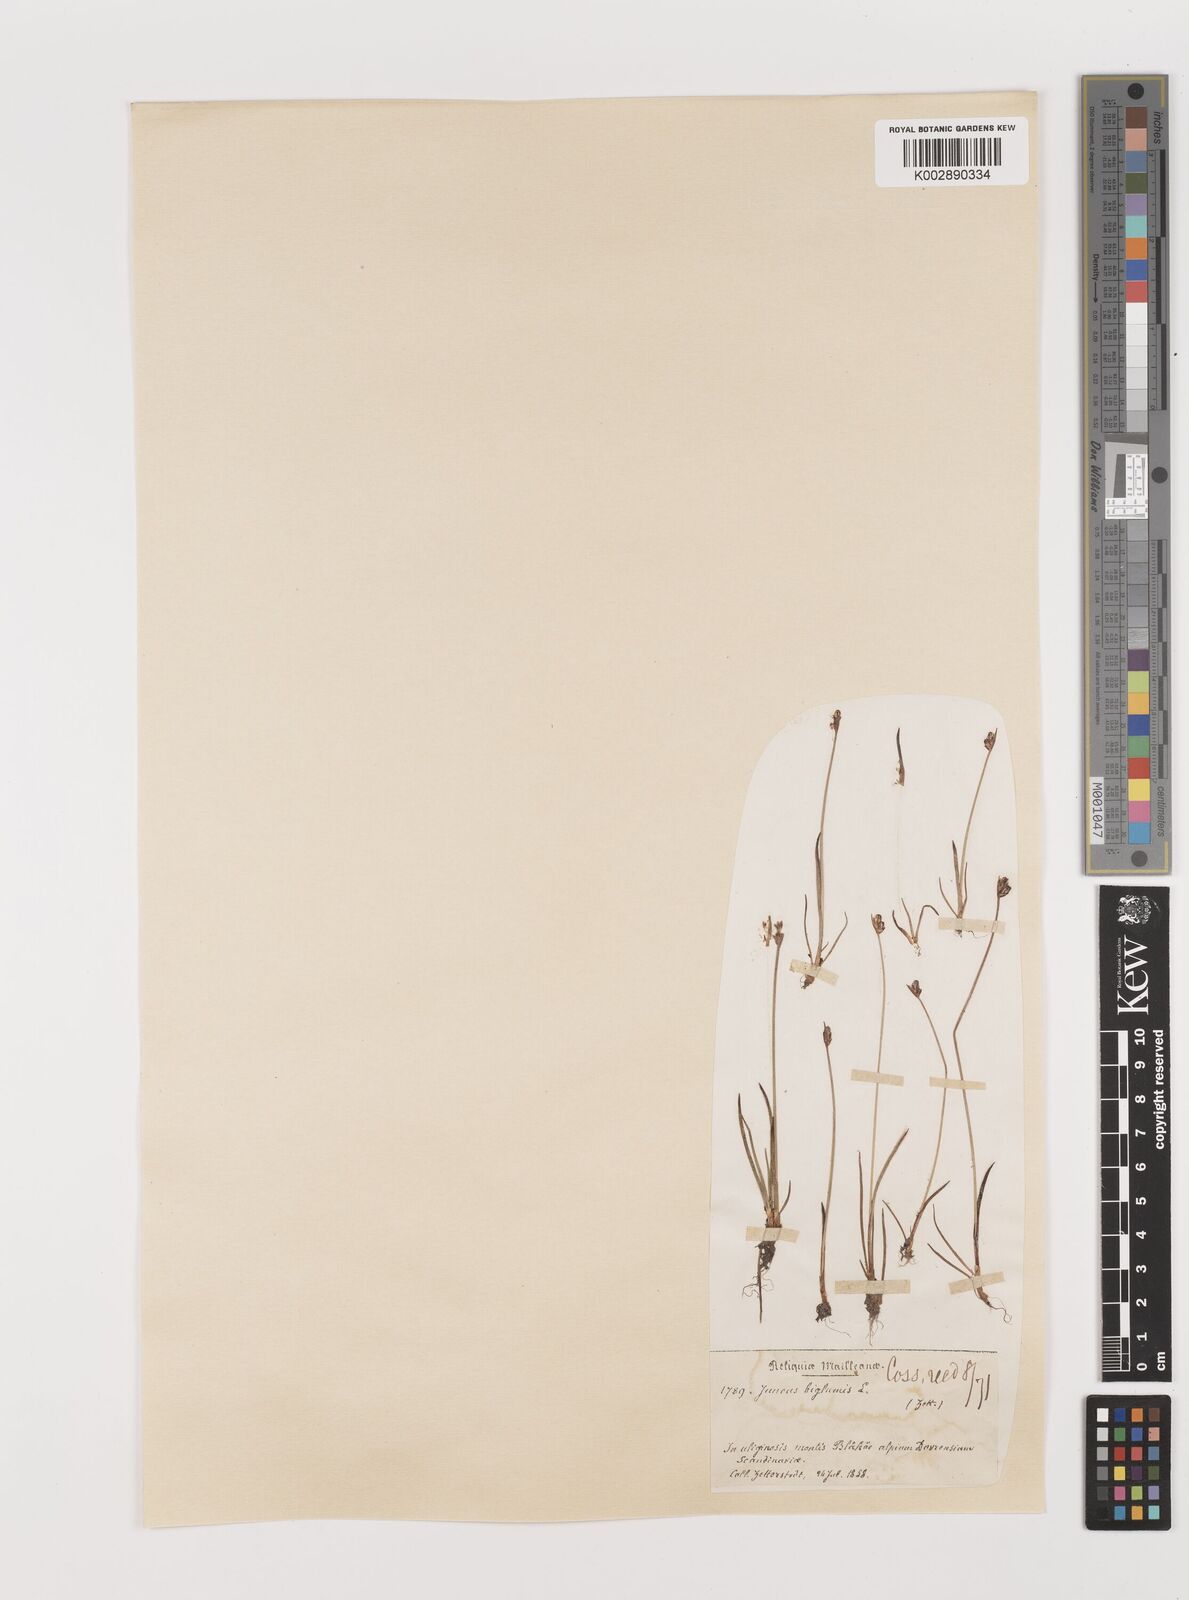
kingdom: Plantae
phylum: Tracheophyta
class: Liliopsida
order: Poales
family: Juncaceae
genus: Juncus
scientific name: Juncus biglumis
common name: Two-flowered rush
